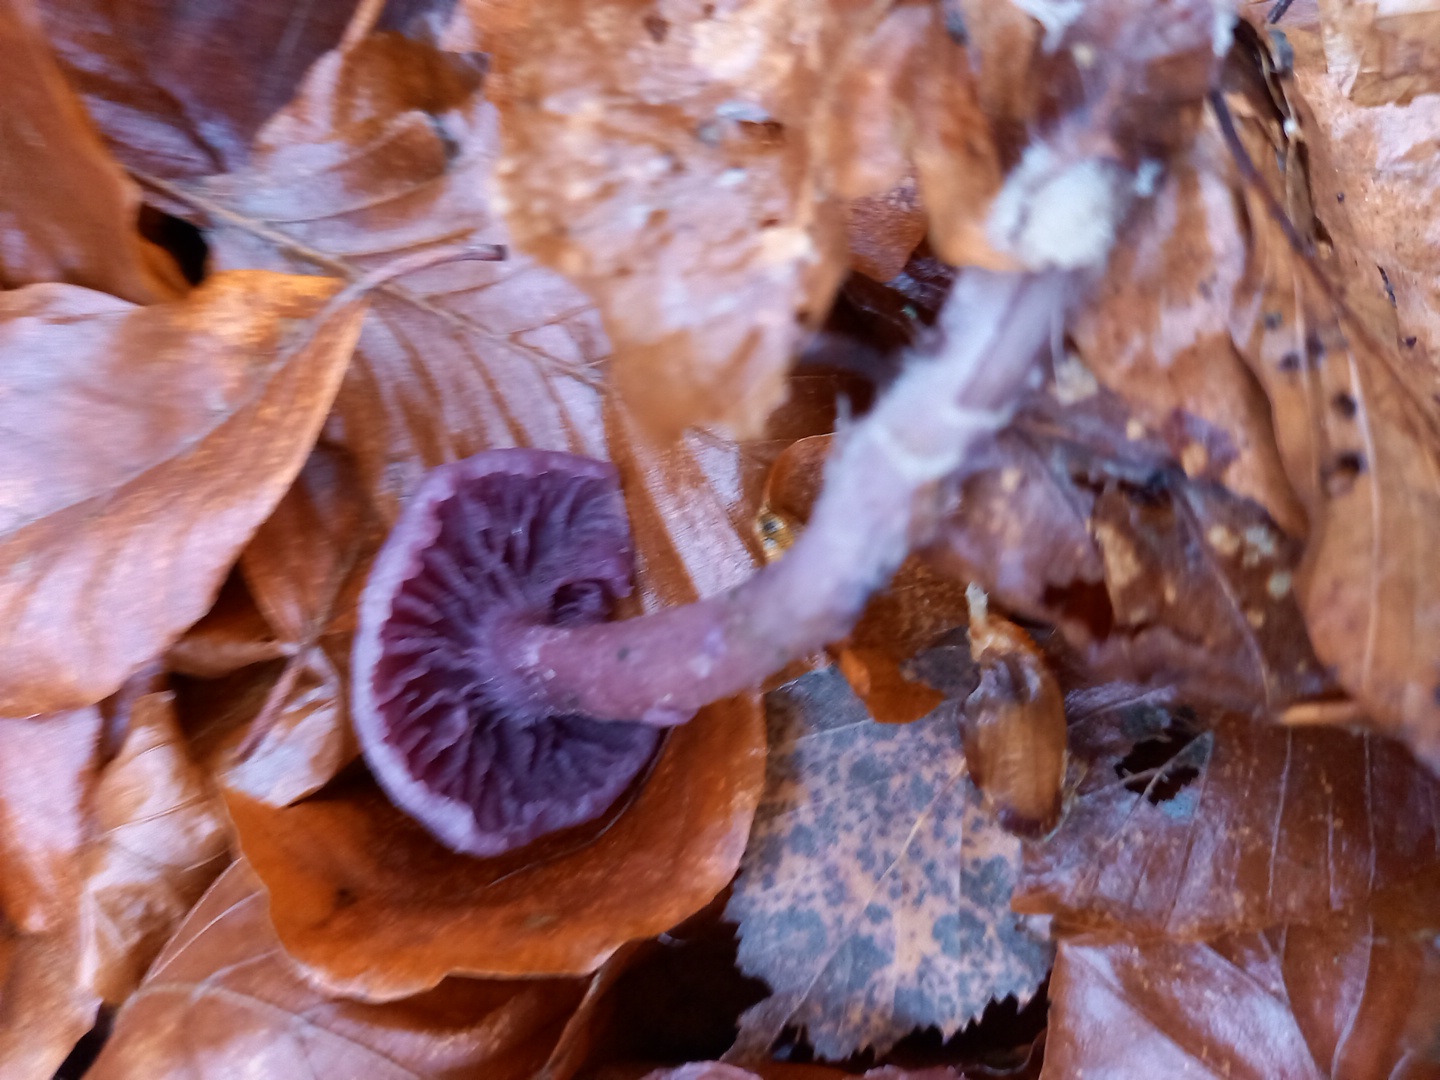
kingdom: Fungi
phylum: Basidiomycota
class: Agaricomycetes
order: Agaricales
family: Hydnangiaceae
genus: Laccaria
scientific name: Laccaria amethystina
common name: violet ametysthat
